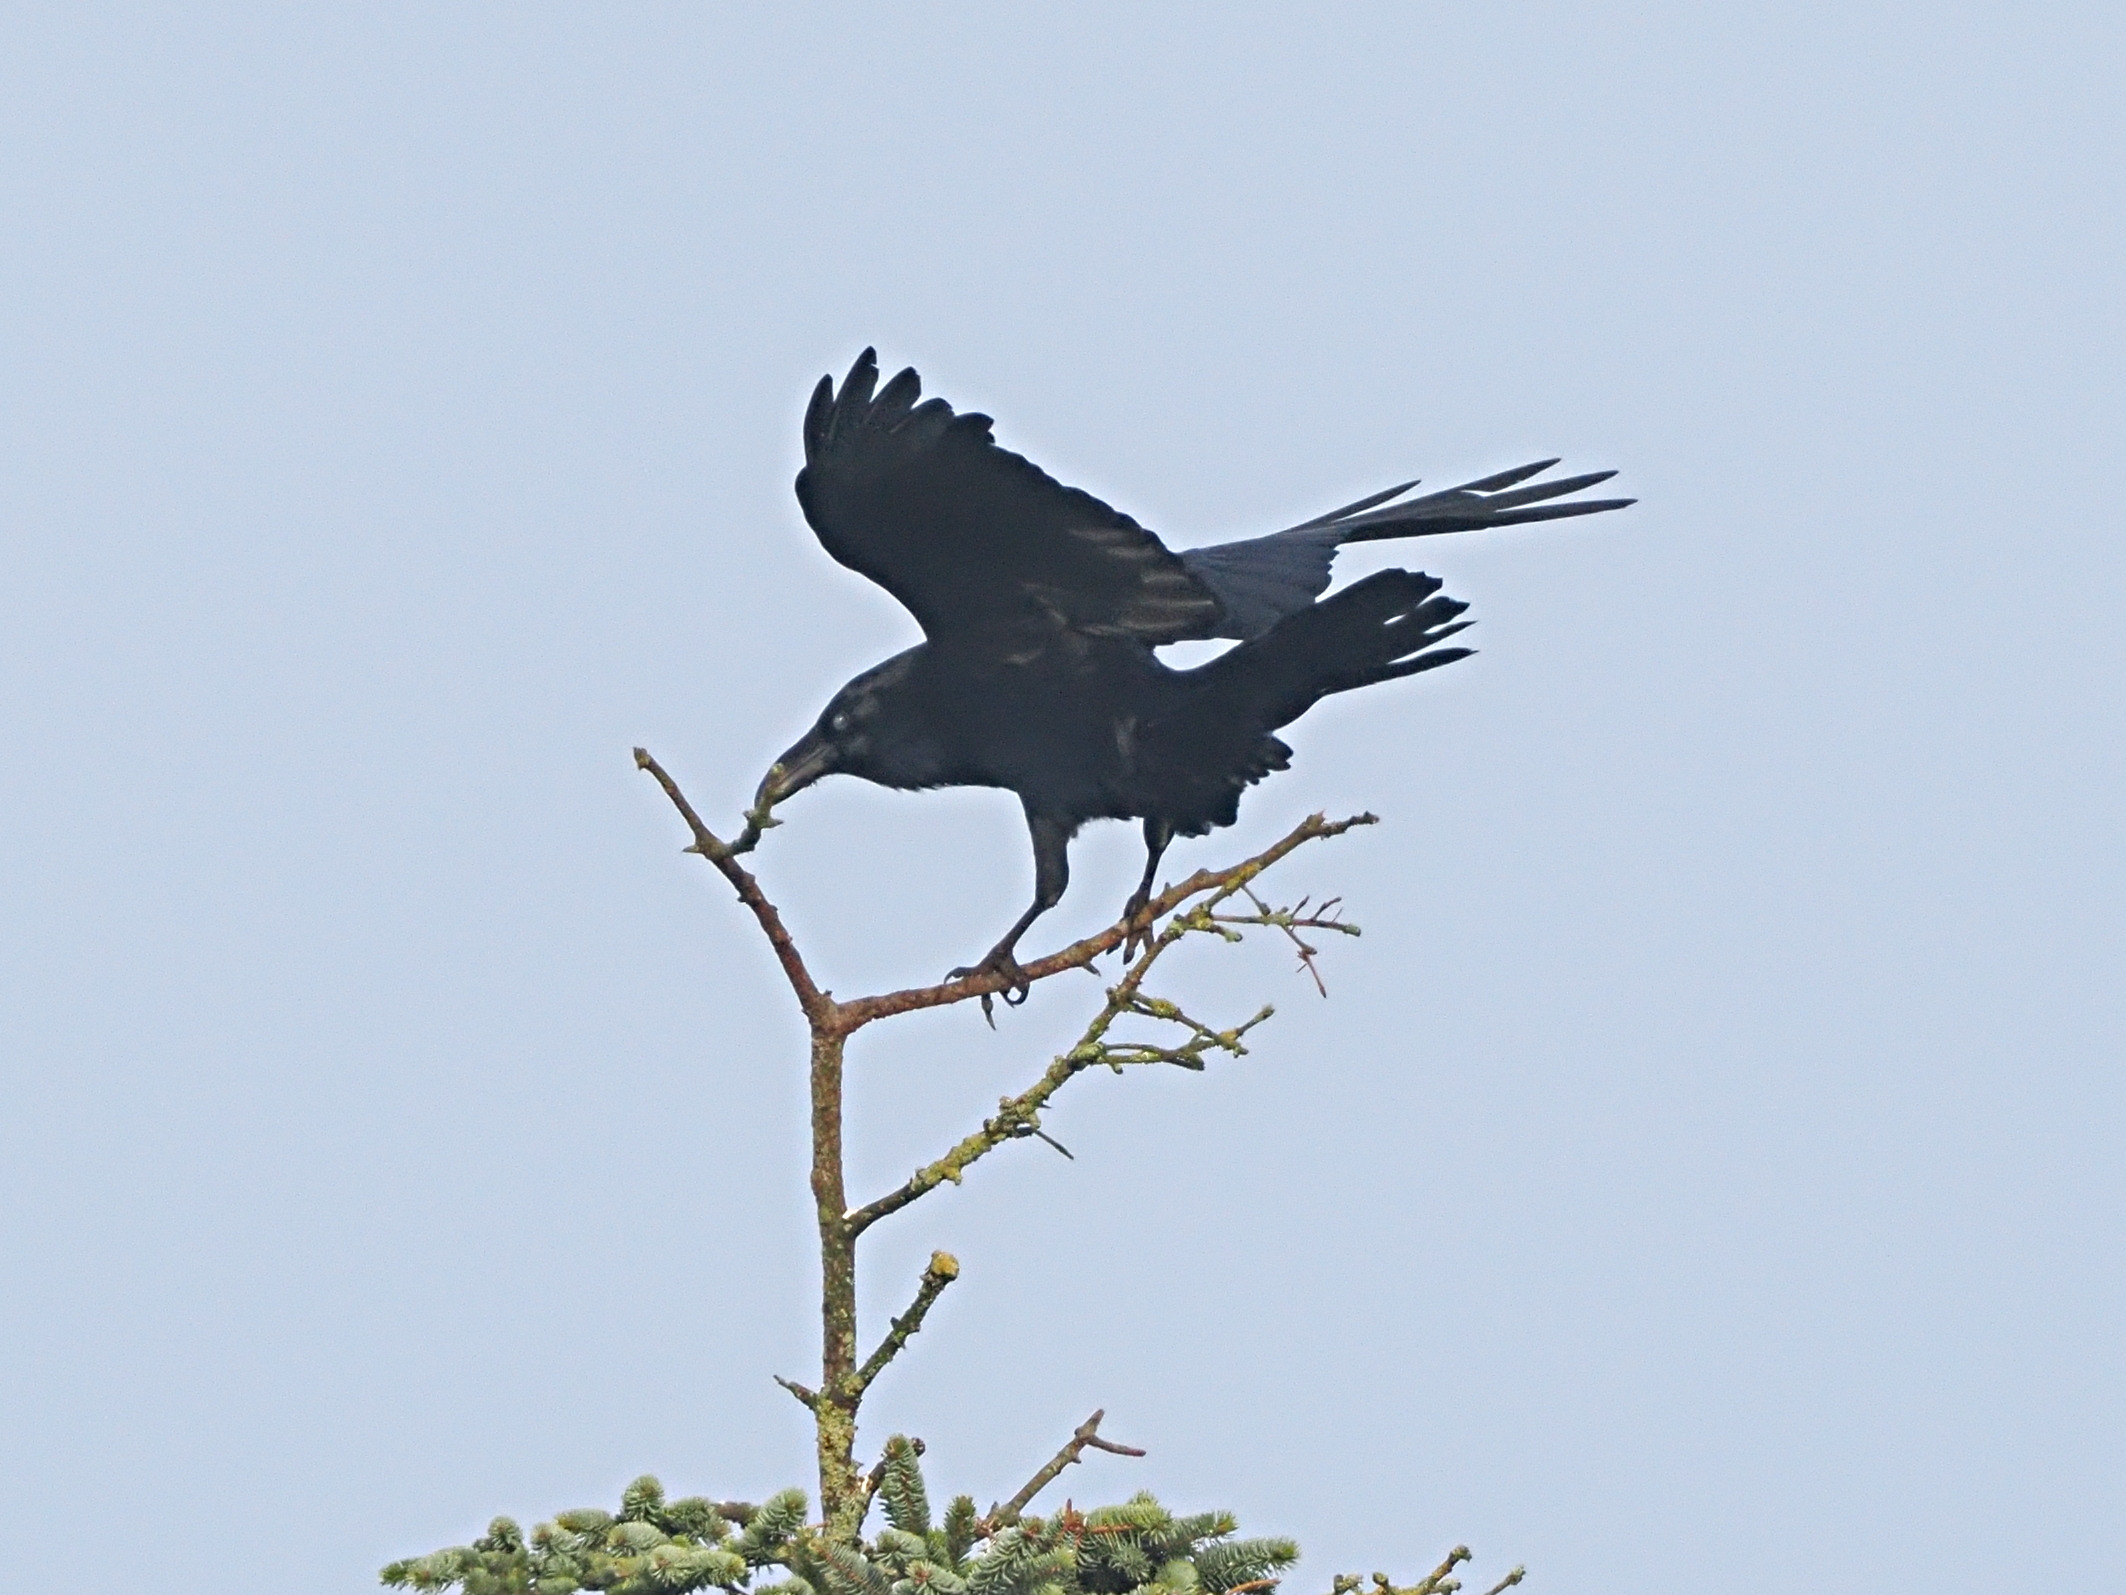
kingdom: Animalia
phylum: Chordata
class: Aves
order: Passeriformes
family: Corvidae
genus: Corvus
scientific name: Corvus corax
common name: Ravn
